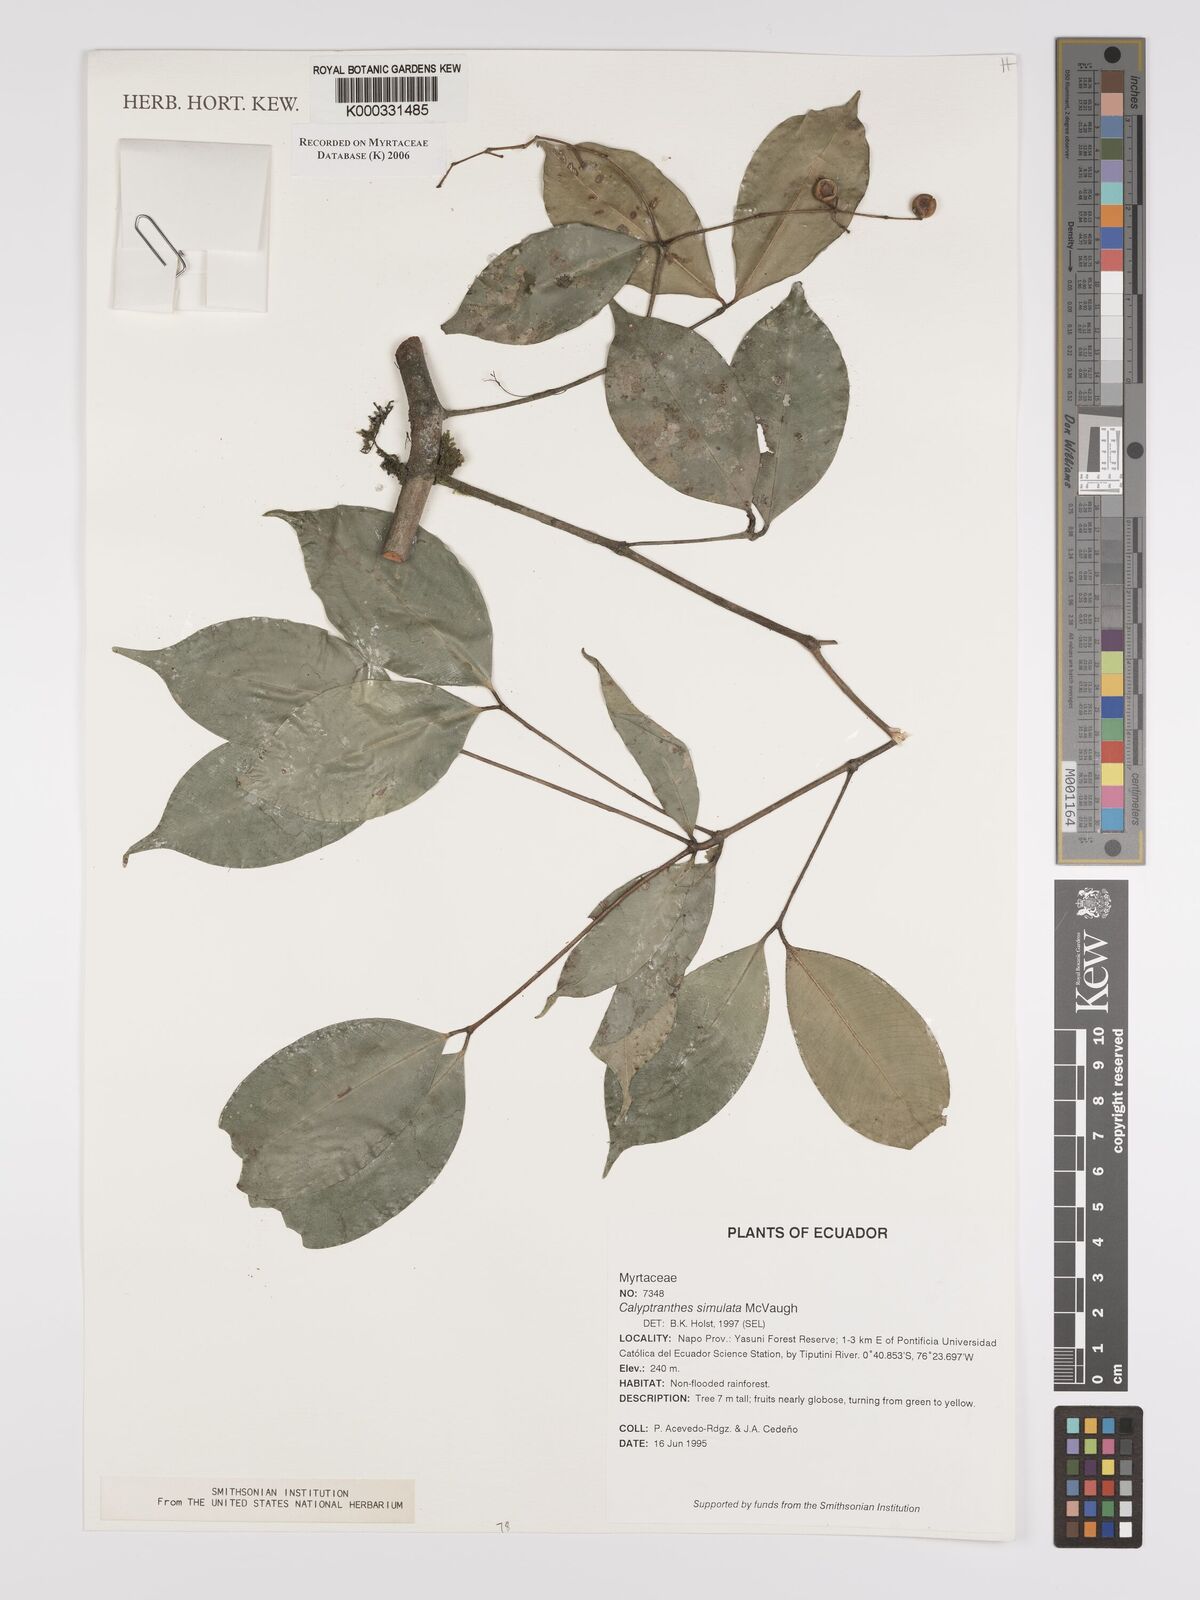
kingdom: Plantae
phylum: Tracheophyta
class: Magnoliopsida
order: Myrtales
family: Myrtaceae
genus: Myrcia
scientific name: Myrcia simulata
